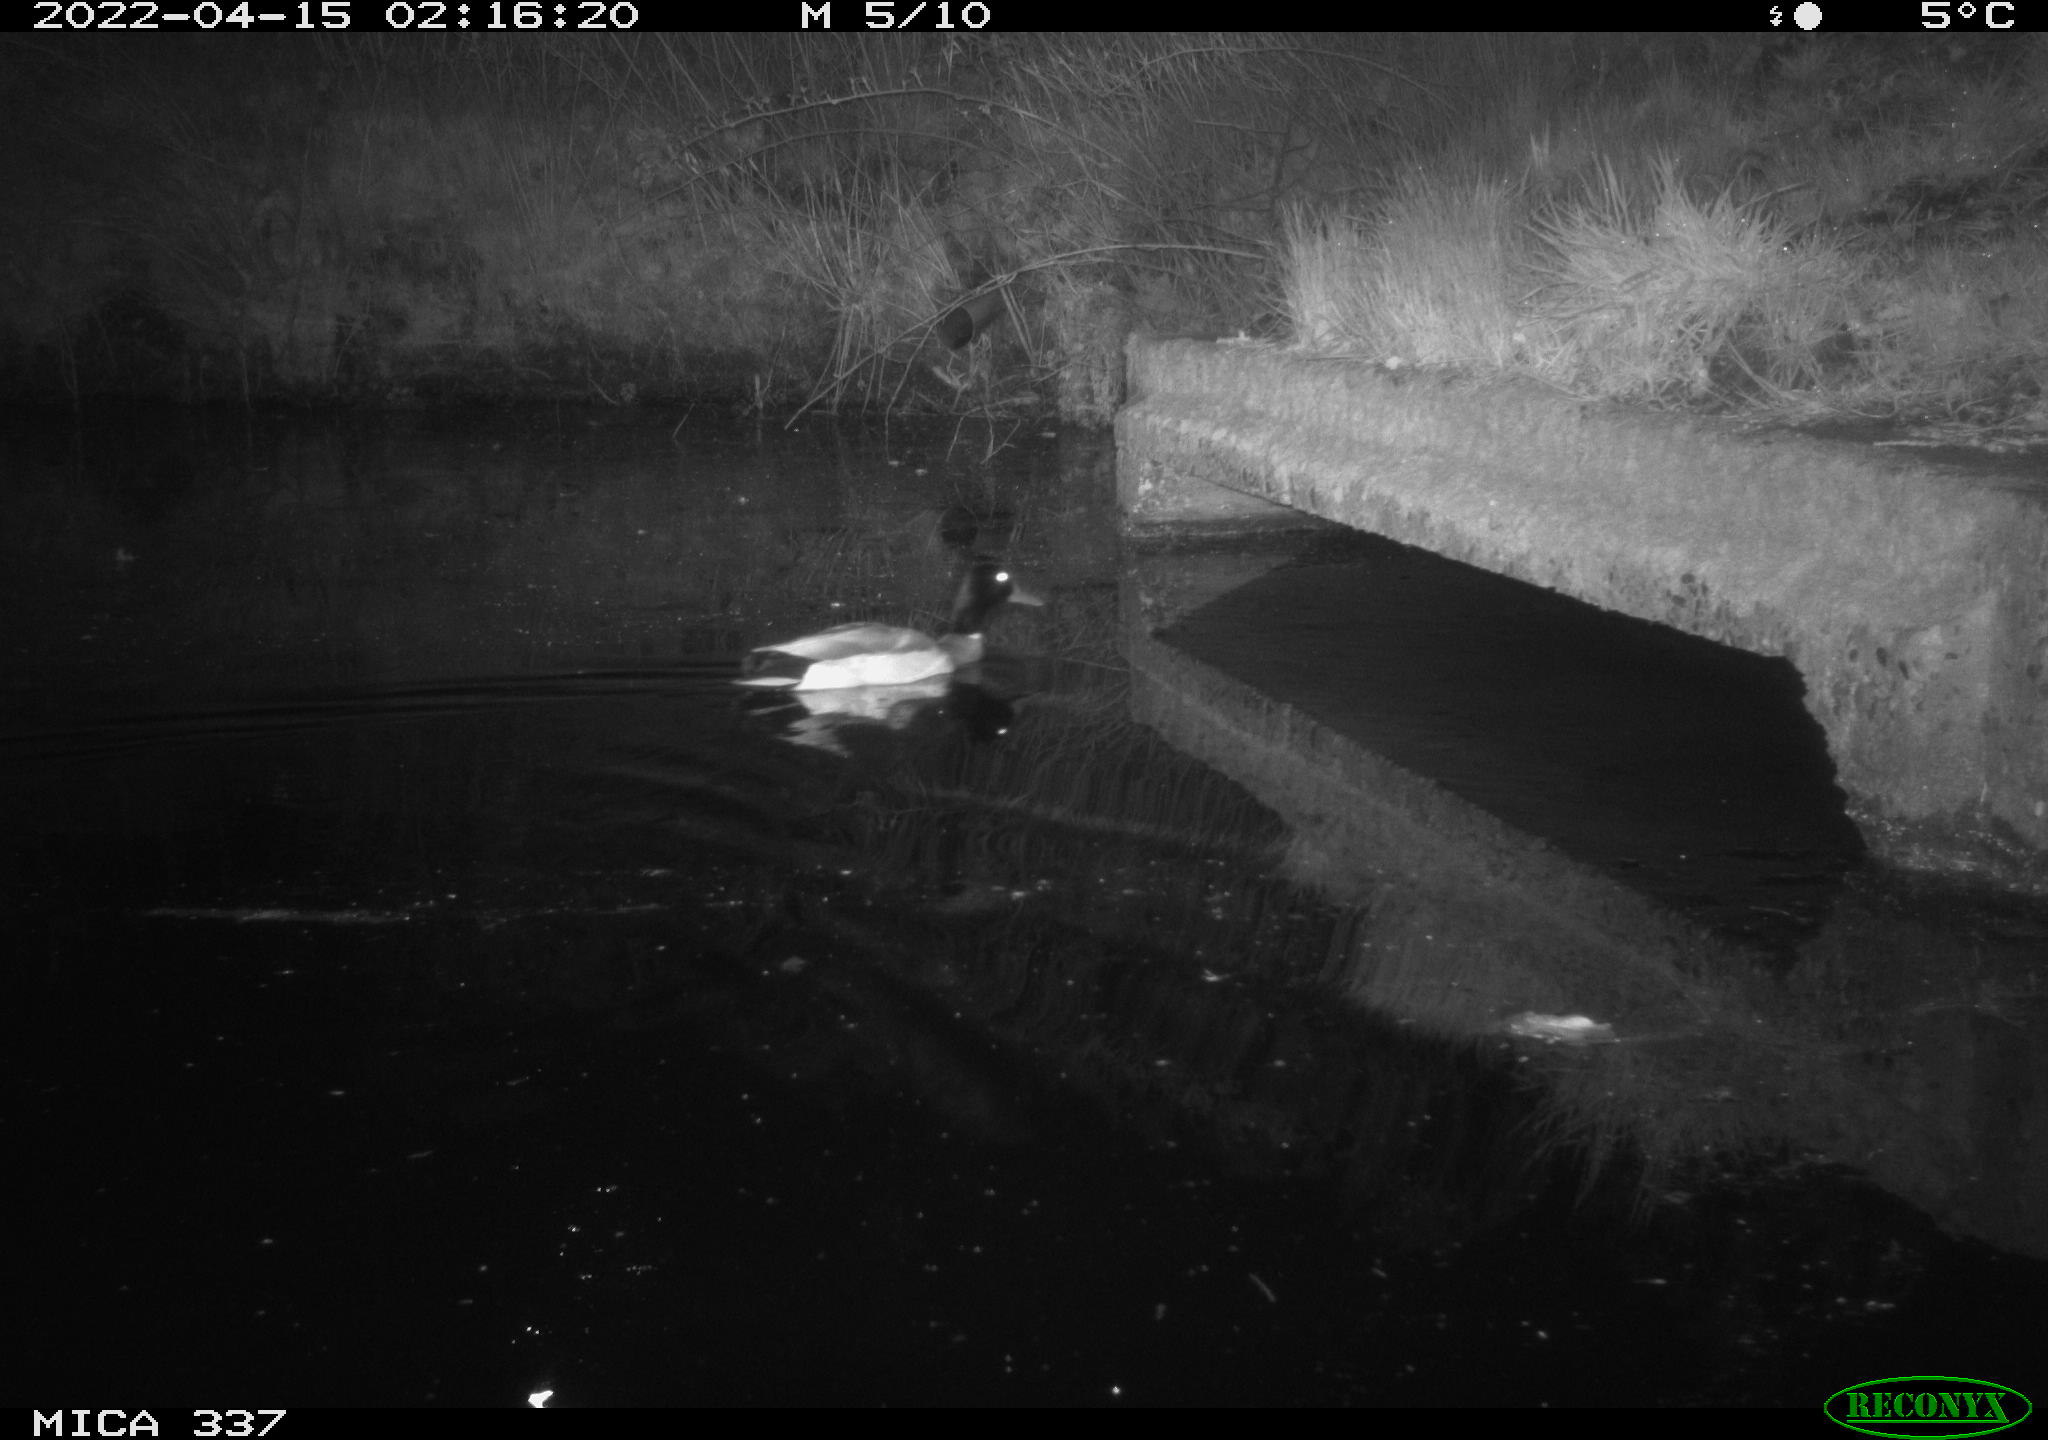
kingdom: Animalia
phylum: Chordata
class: Aves
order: Anseriformes
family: Anatidae
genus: Anas
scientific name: Anas platyrhynchos
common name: Mallard
